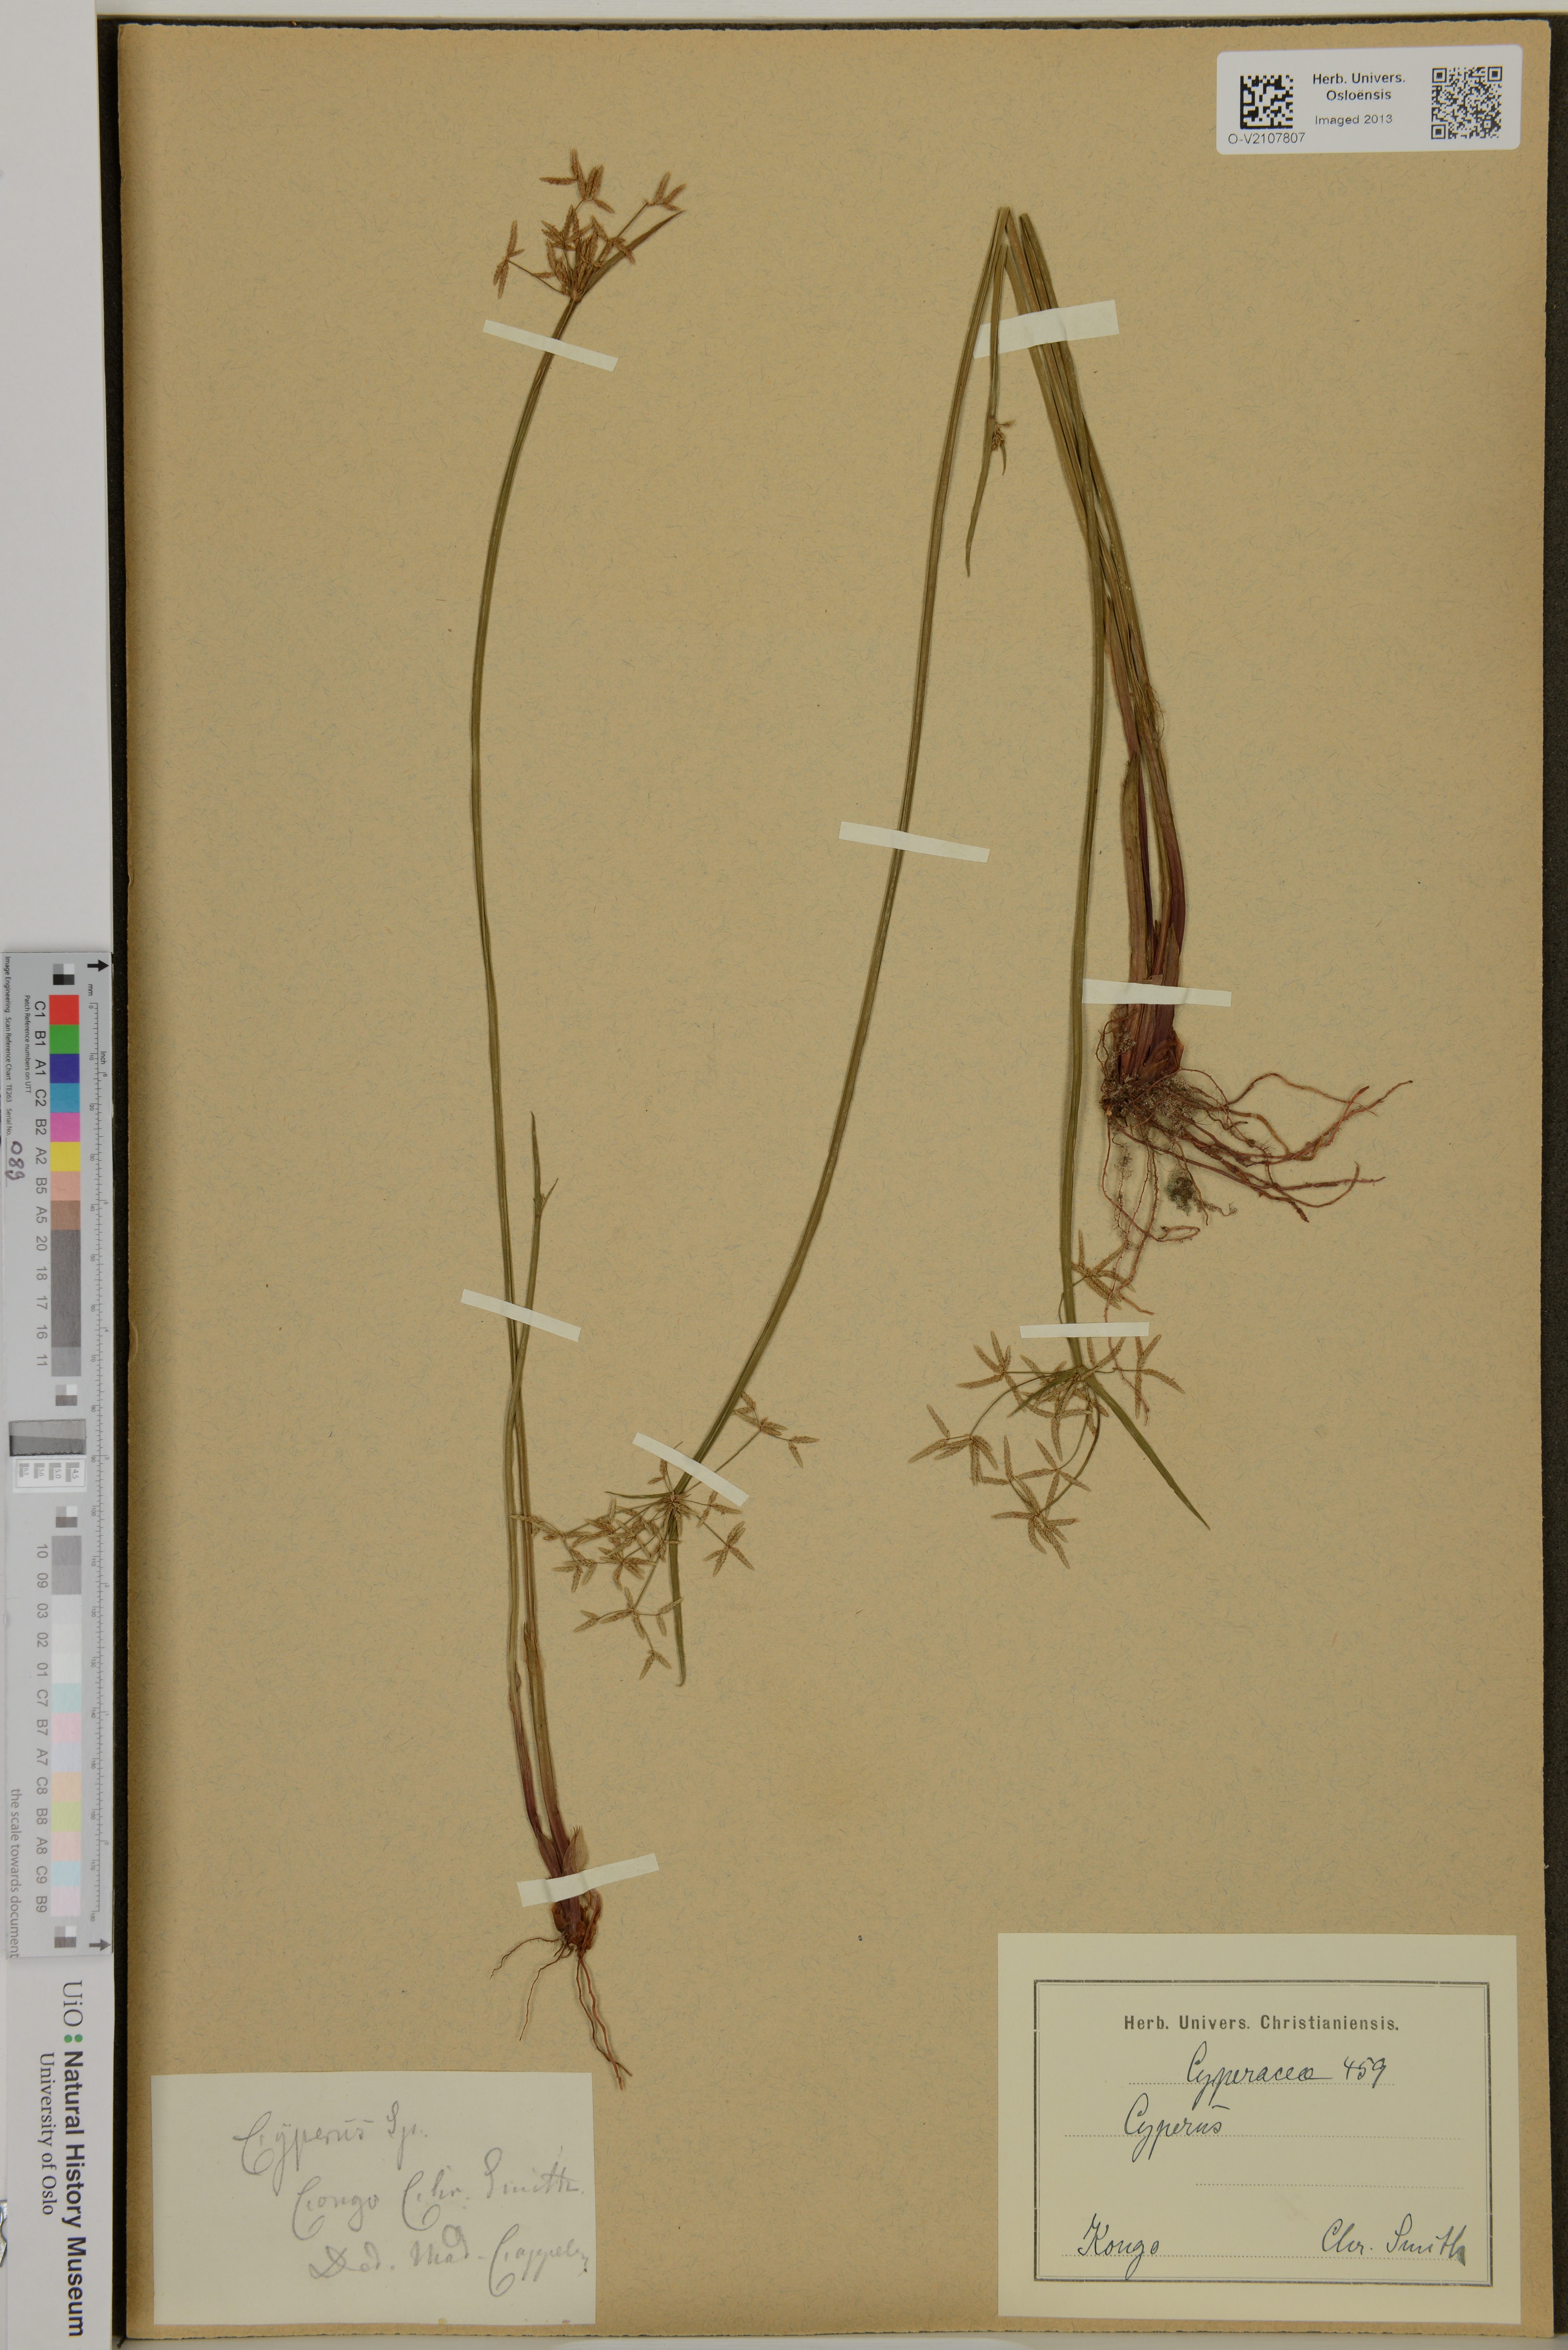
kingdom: Plantae
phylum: Tracheophyta
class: Liliopsida
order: Poales
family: Cyperaceae
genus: Cyperus
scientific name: Cyperus
